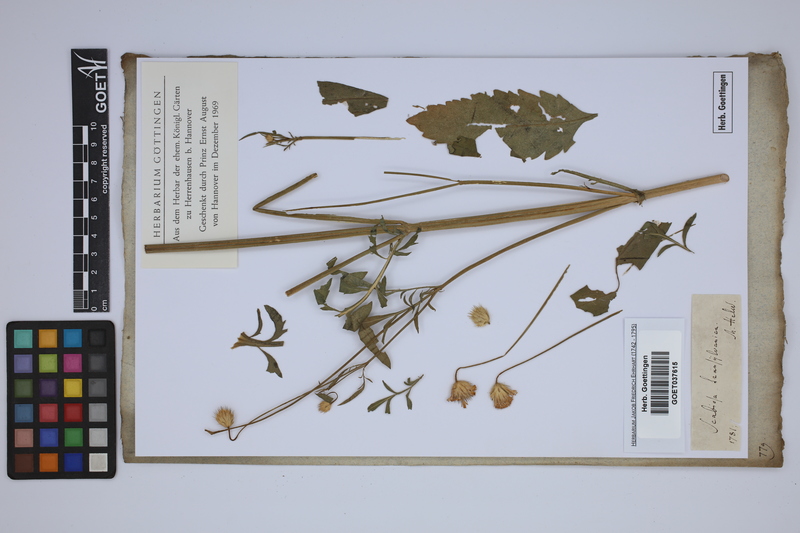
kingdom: Plantae
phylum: Tracheophyta
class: Magnoliopsida
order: Dipsacales
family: Caprifoliaceae
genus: Cephalaria
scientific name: Cephalaria transsylvanica
